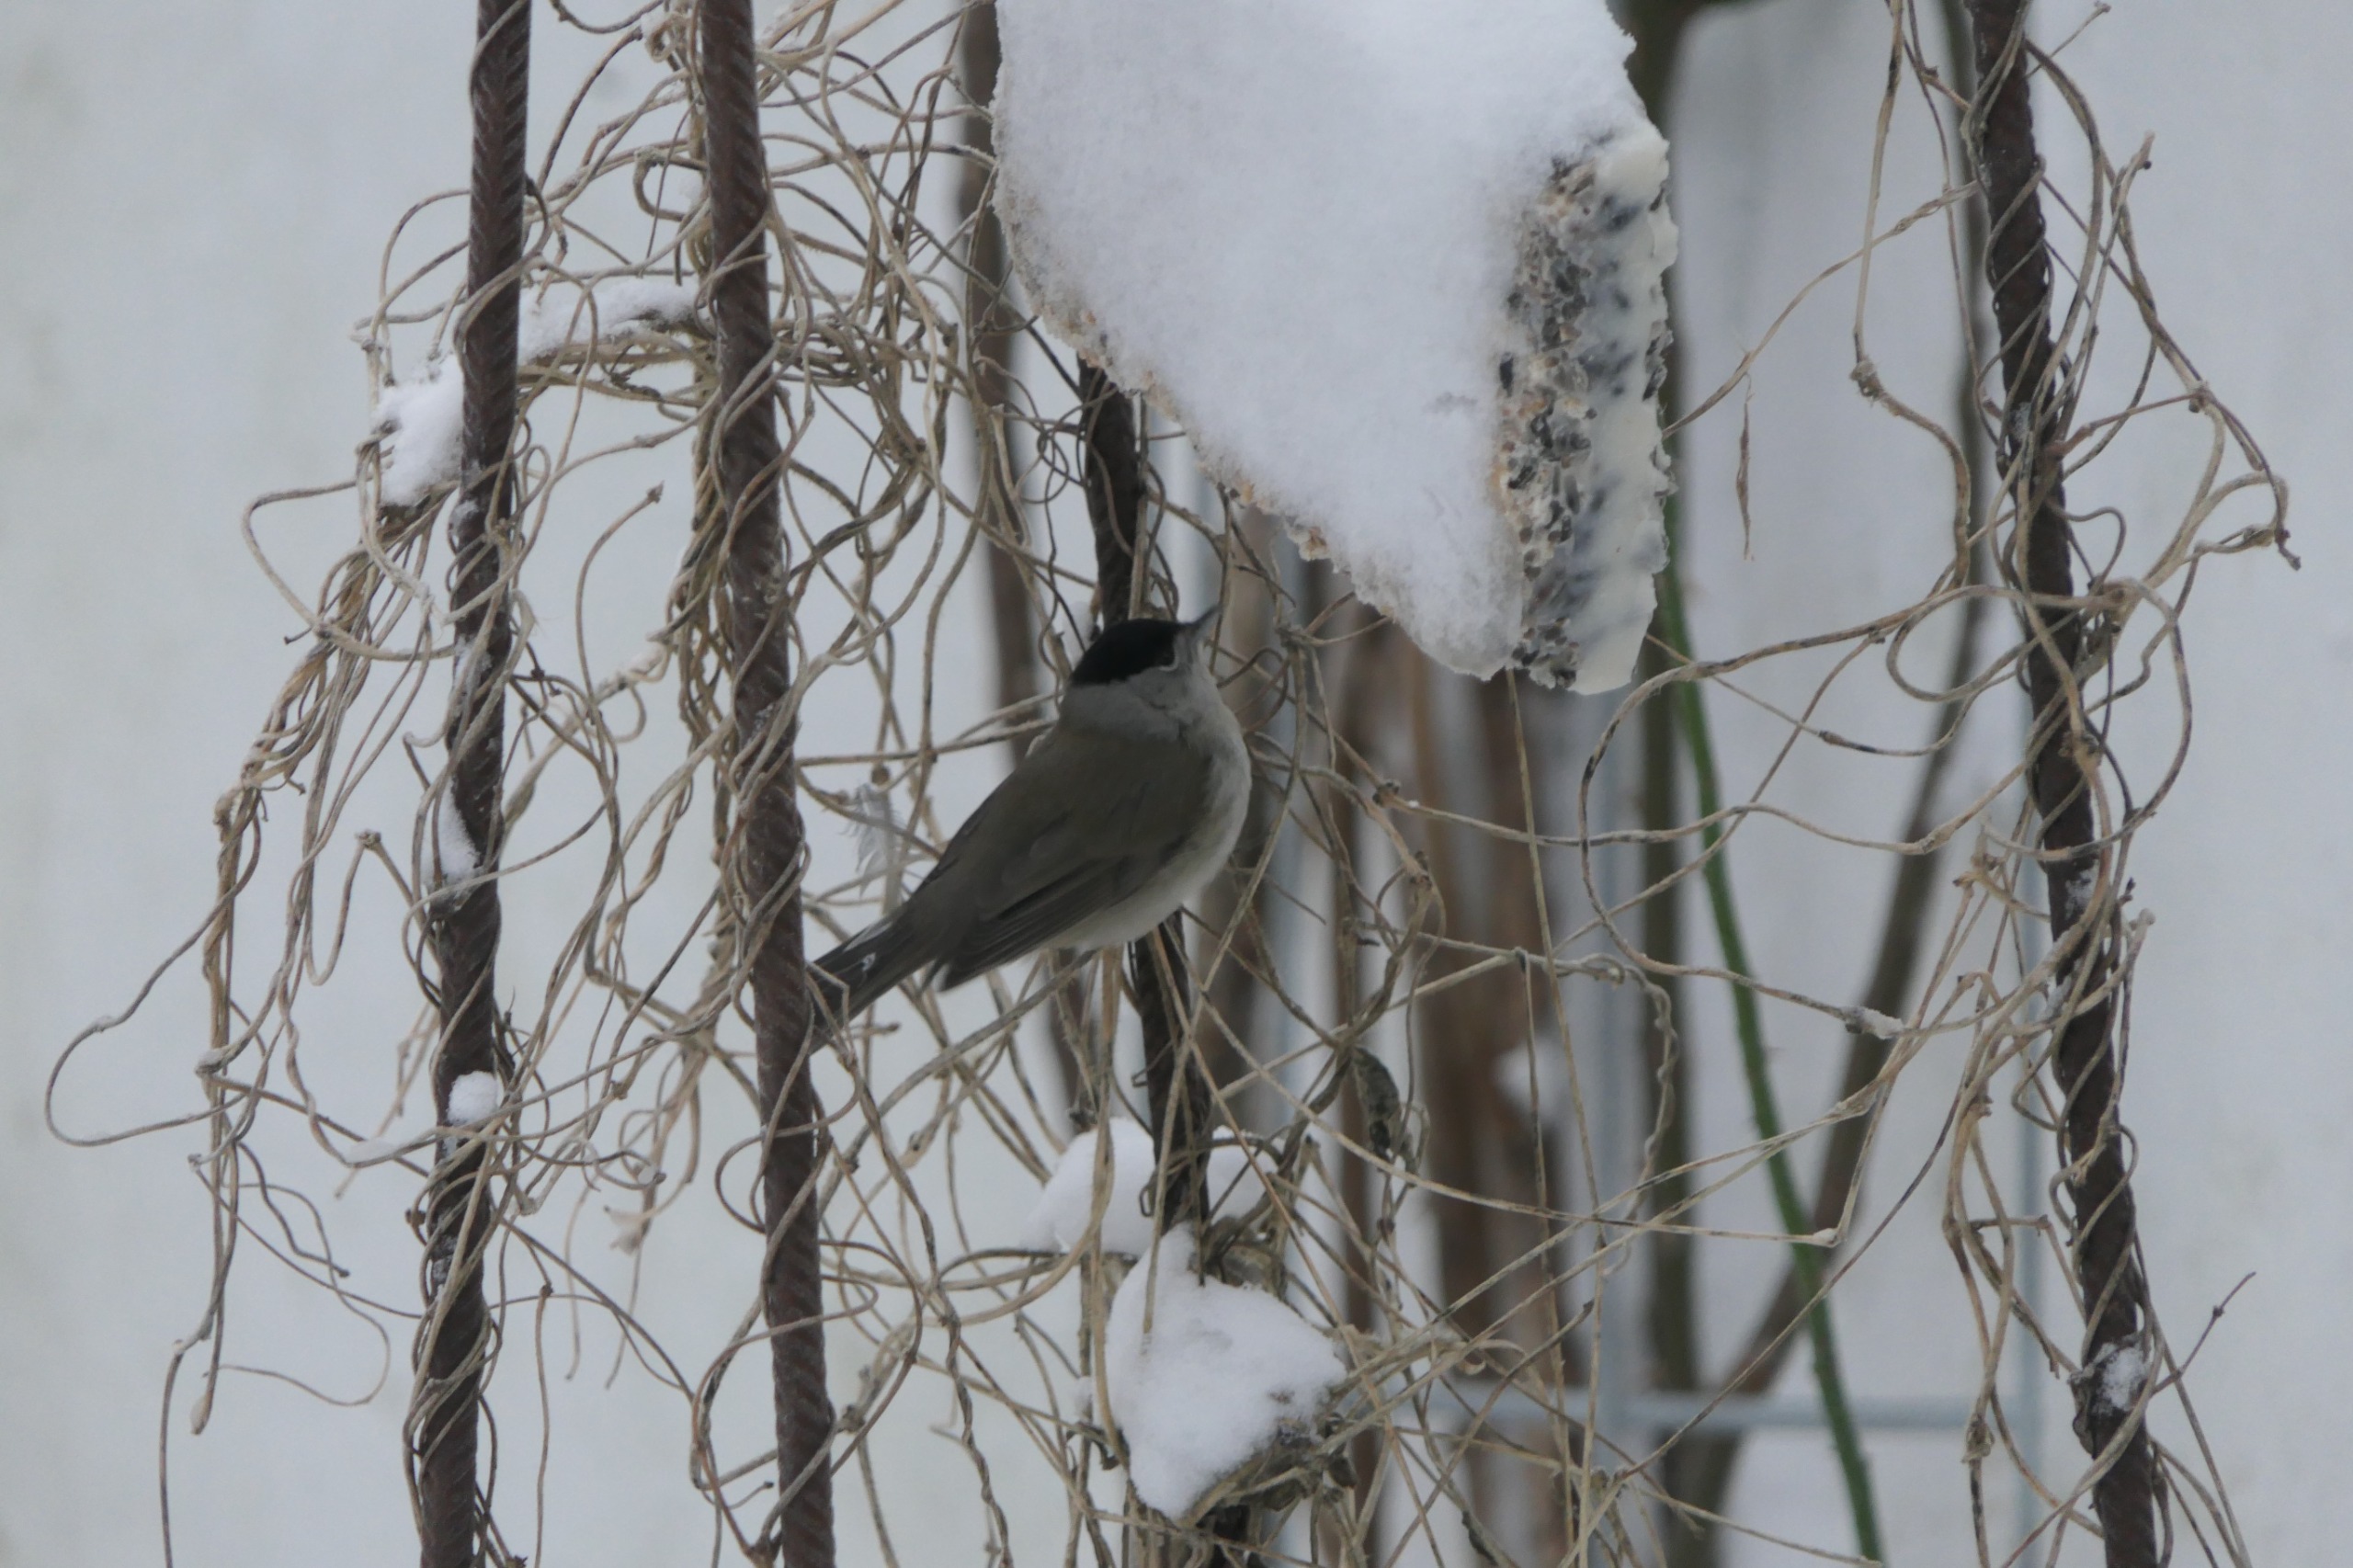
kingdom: Animalia
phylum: Chordata
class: Aves
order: Passeriformes
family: Sylviidae
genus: Sylvia
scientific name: Sylvia atricapilla
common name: Munk
